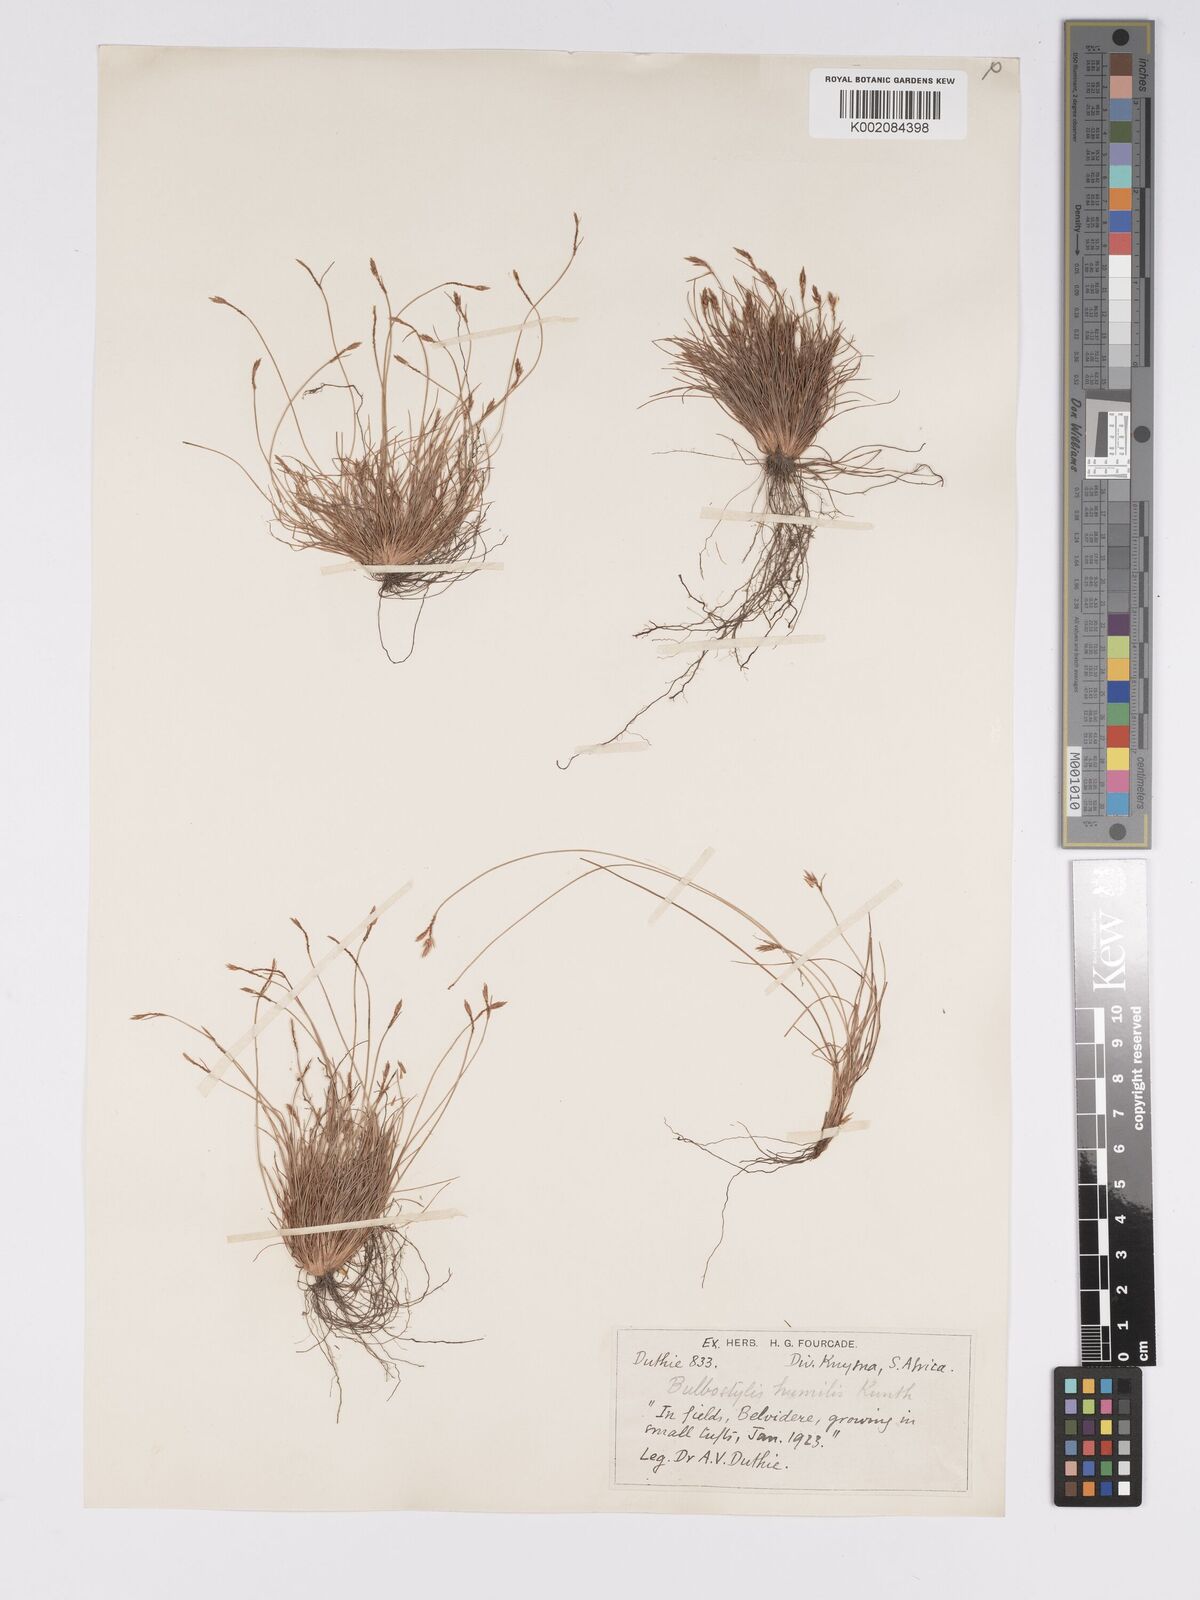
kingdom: Plantae
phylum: Tracheophyta
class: Liliopsida
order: Poales
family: Cyperaceae
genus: Bulbostylis
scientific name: Bulbostylis humilis
